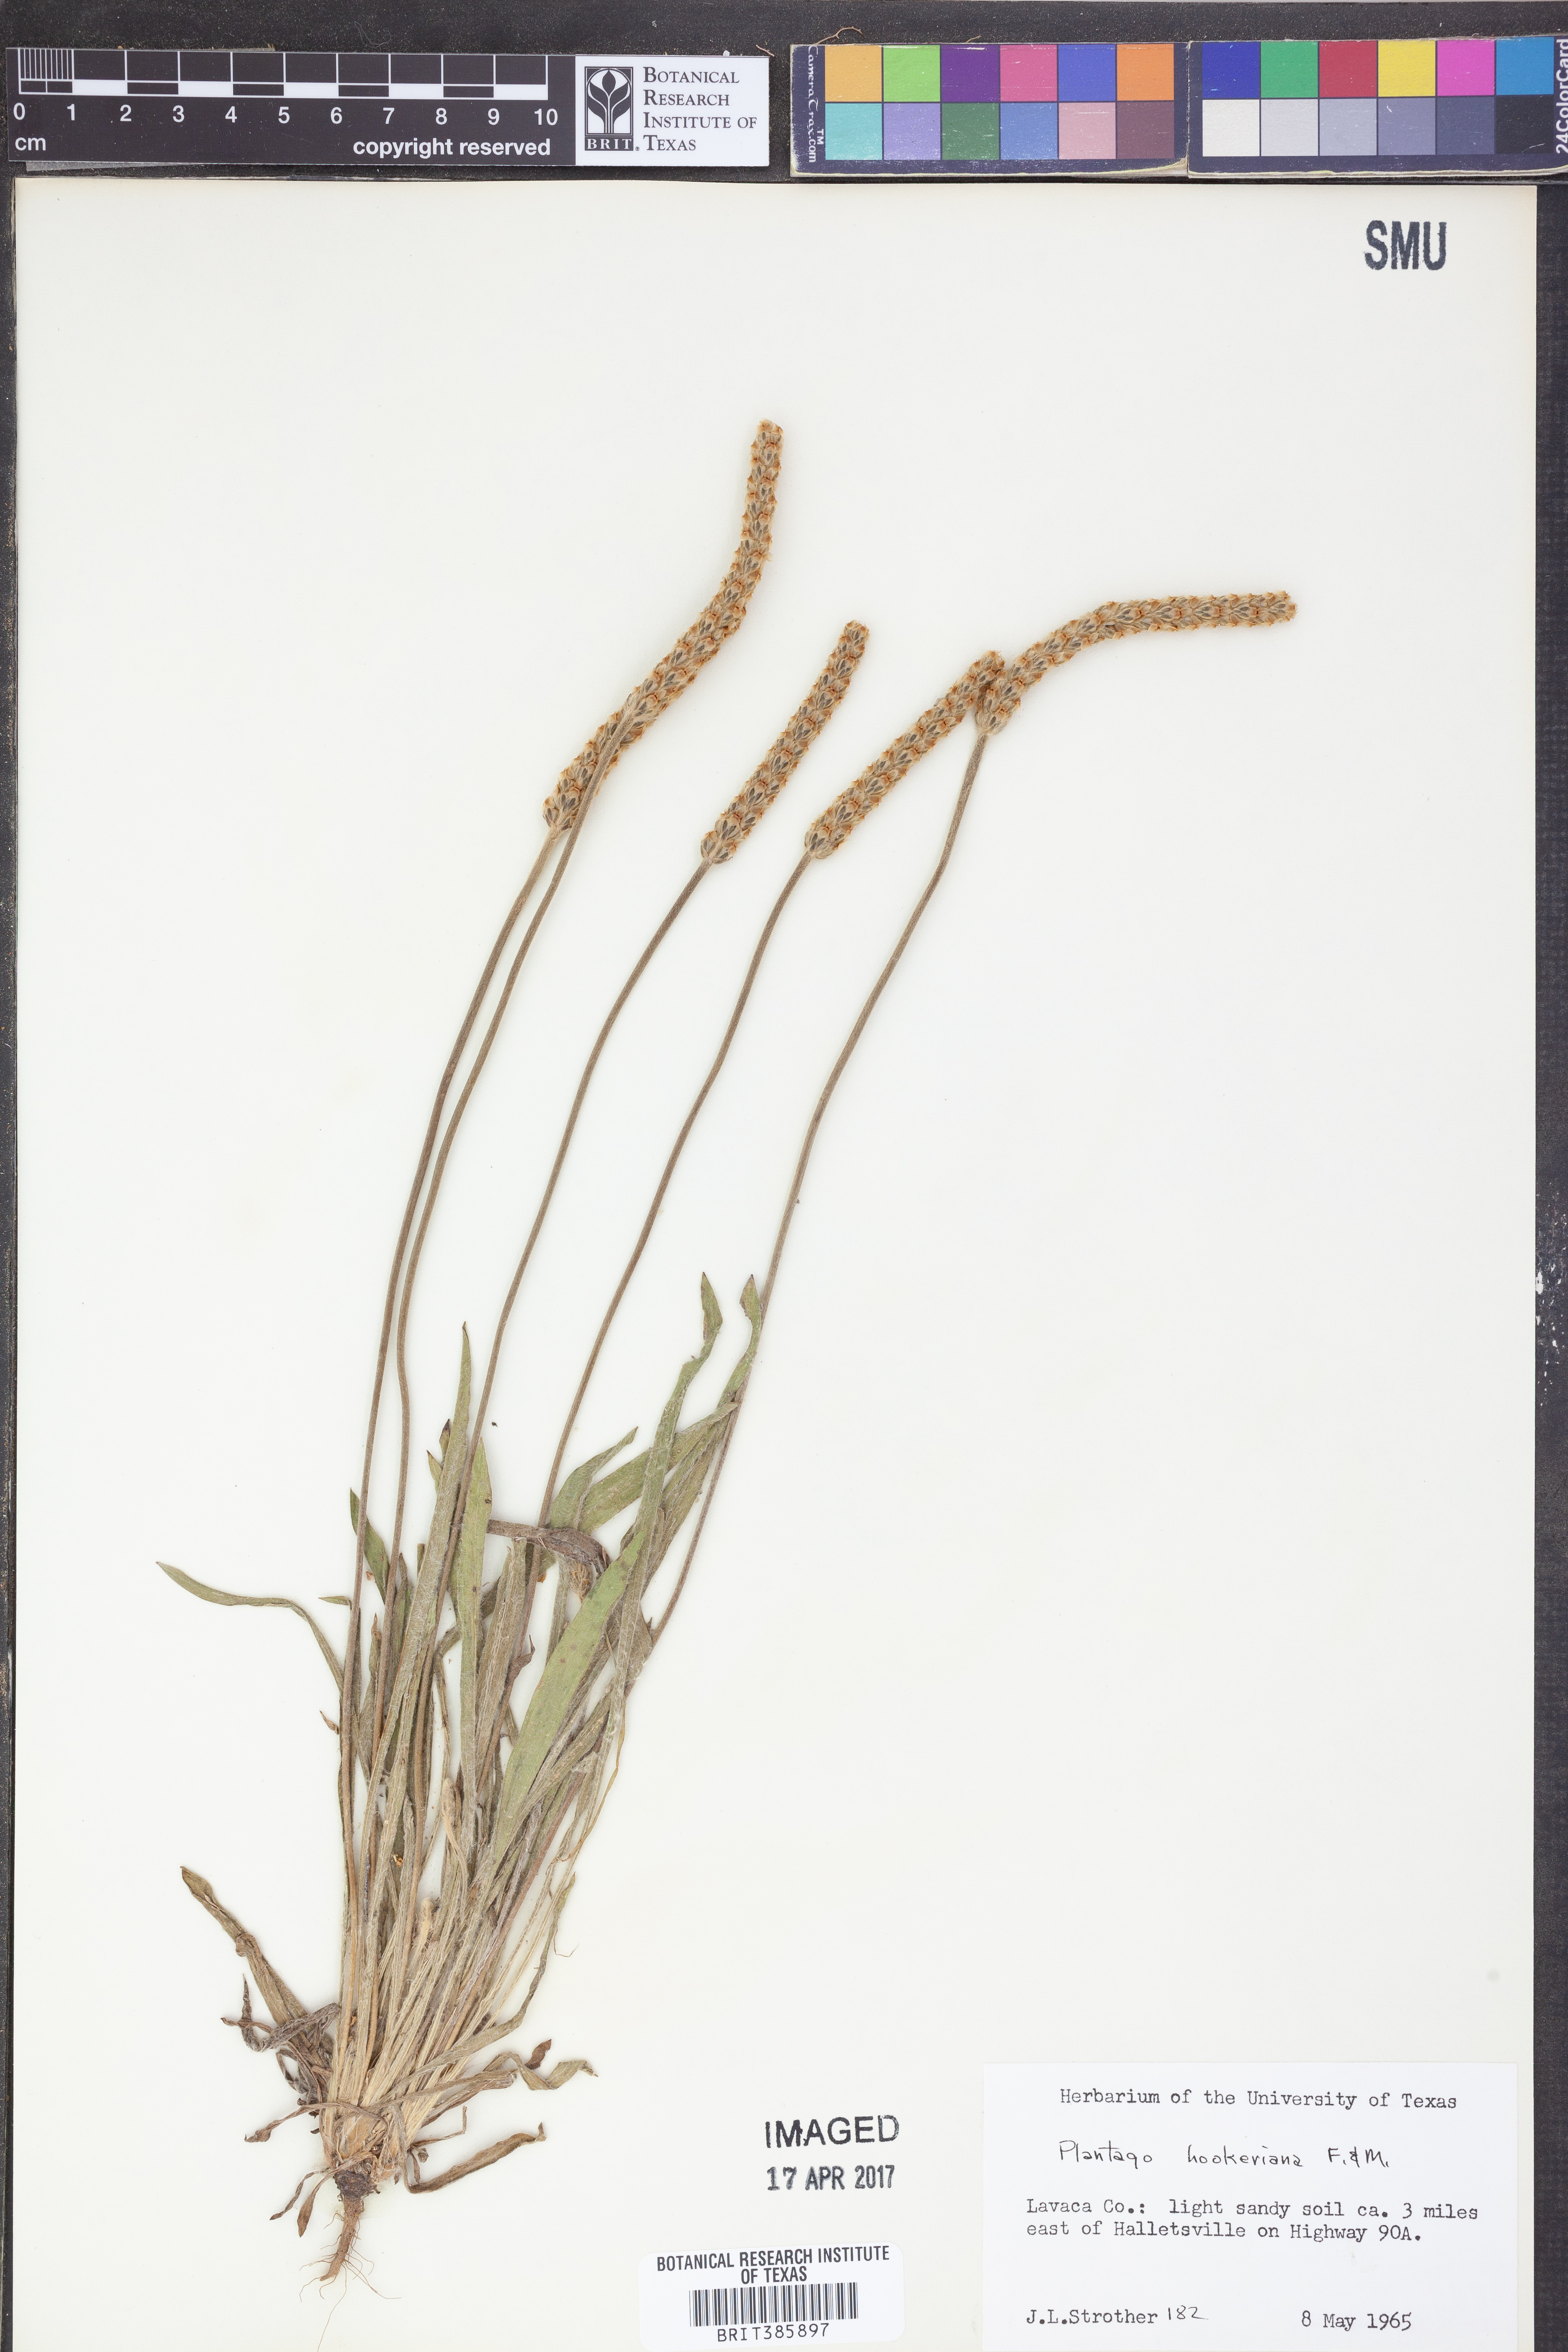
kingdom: Plantae
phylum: Tracheophyta
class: Magnoliopsida
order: Lamiales
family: Plantaginaceae
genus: Plantago
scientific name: Plantago hookeriana
